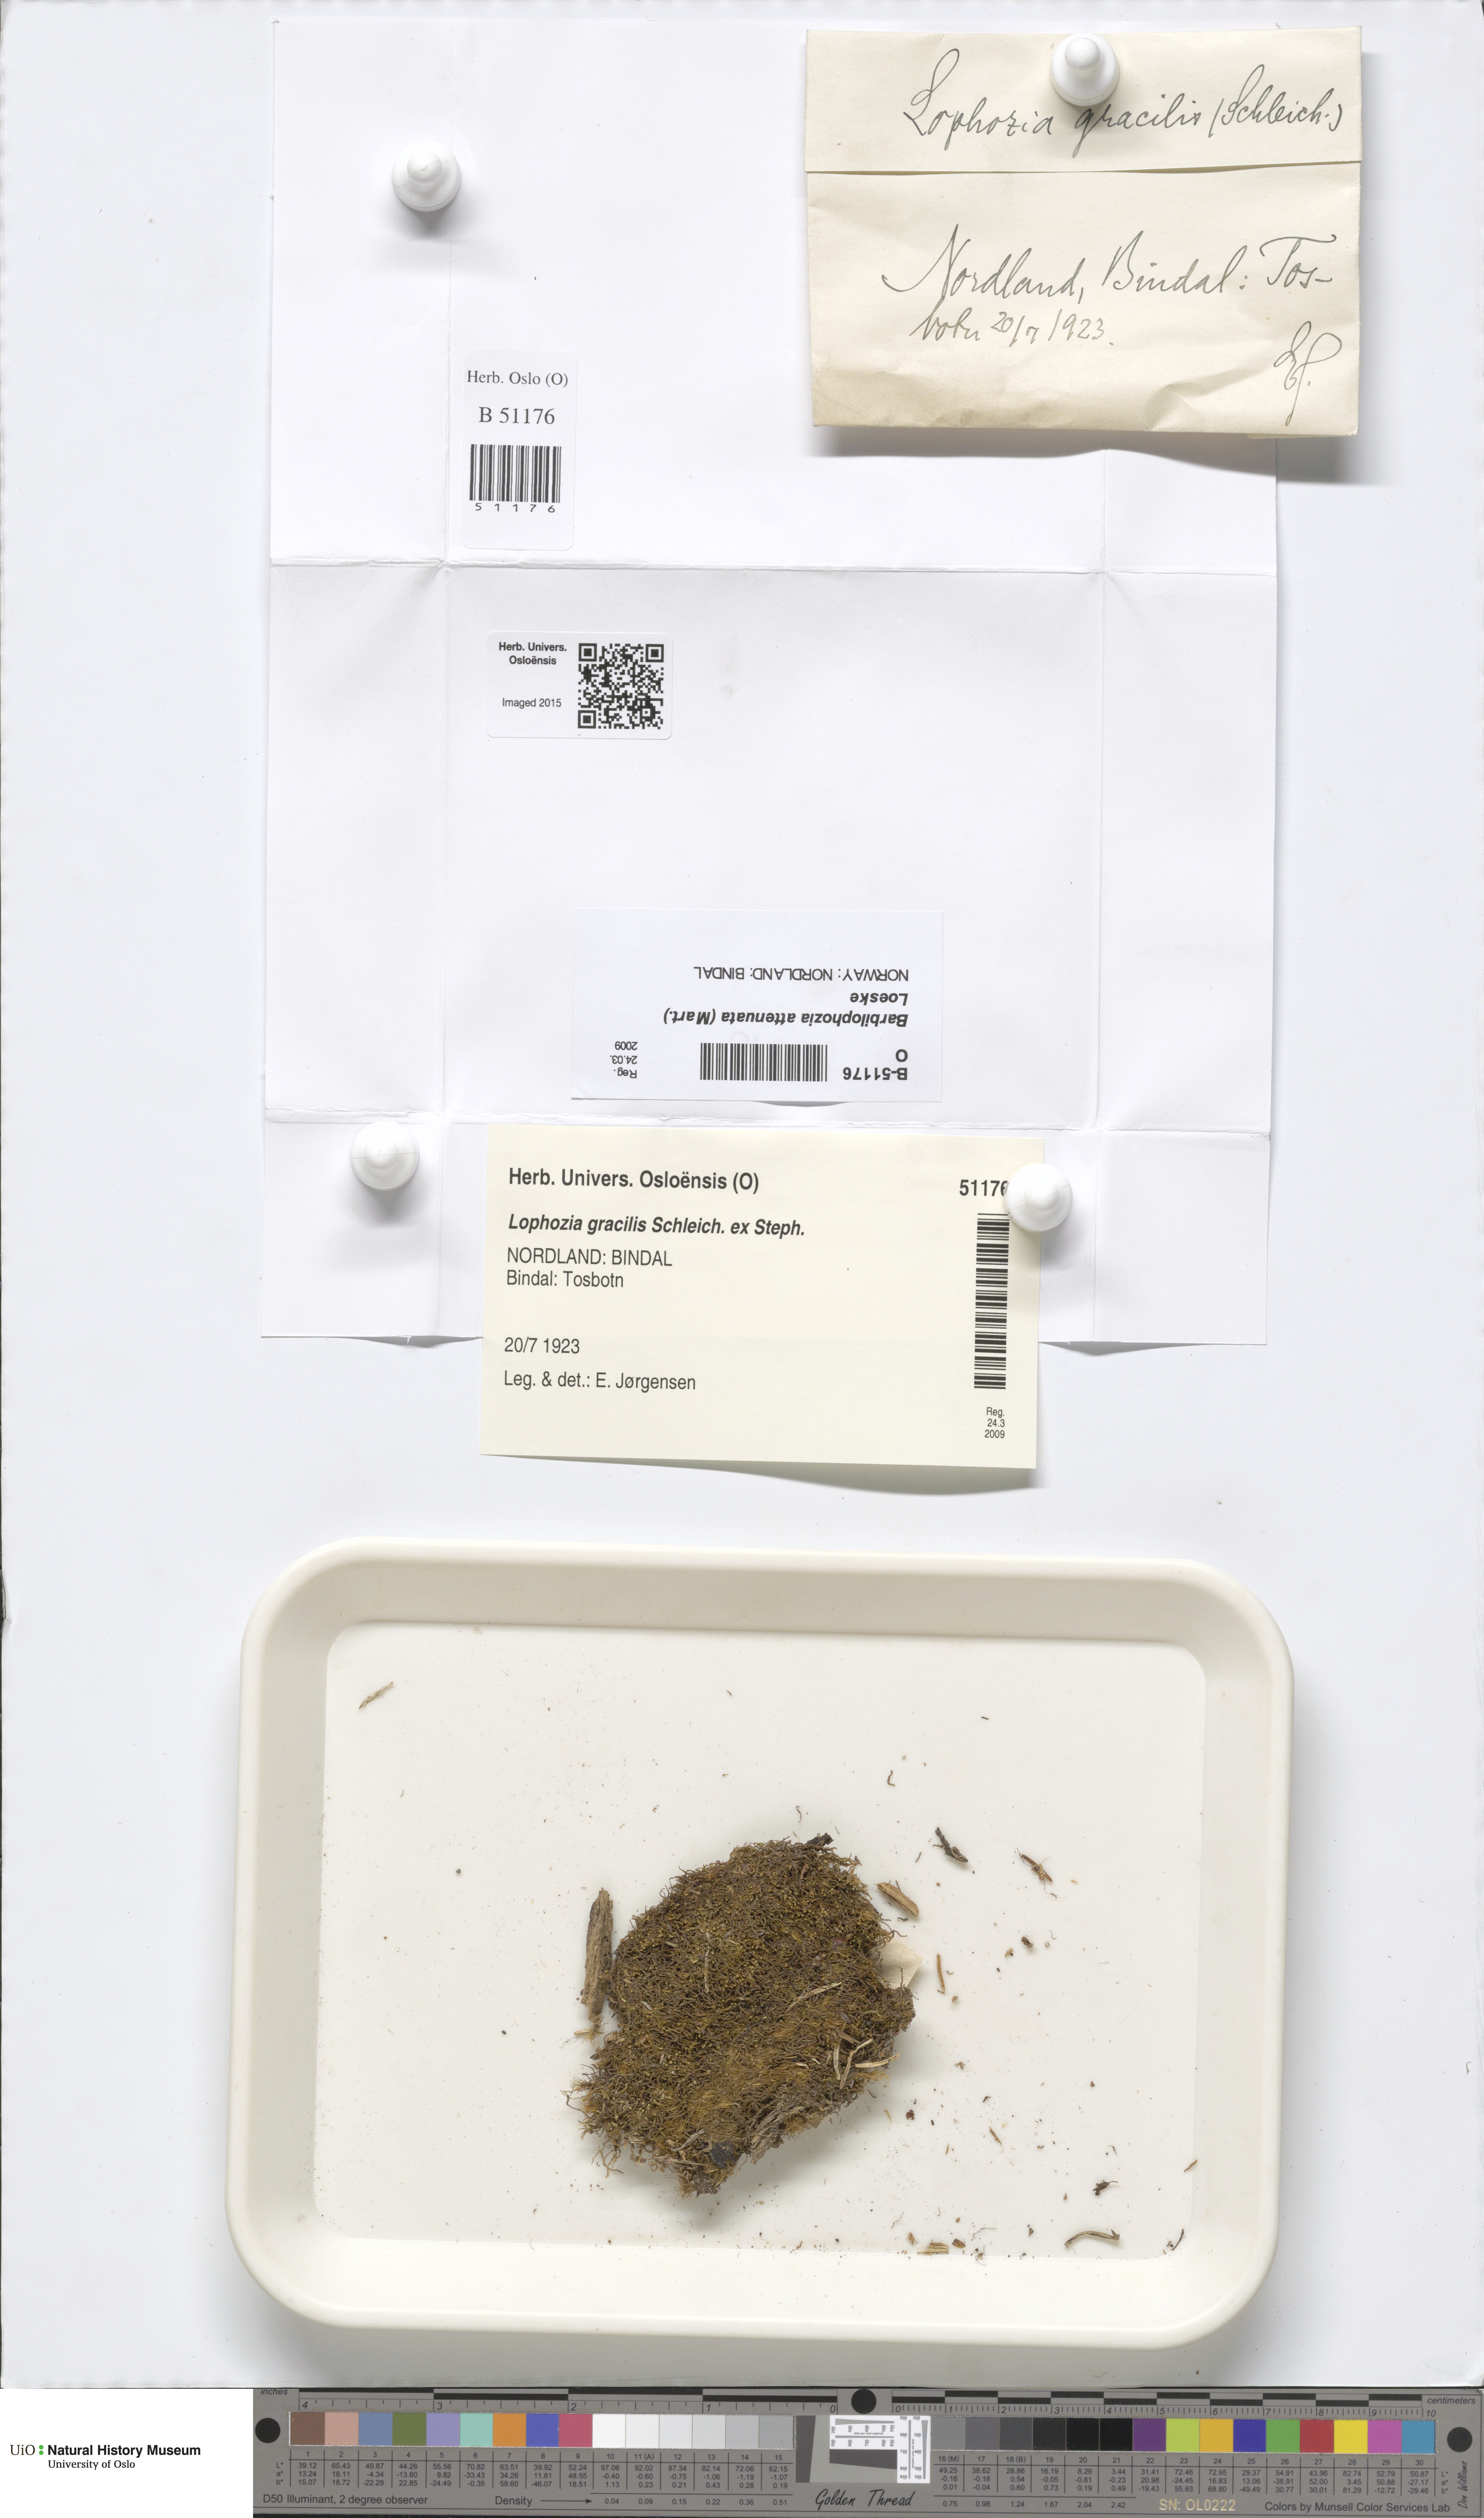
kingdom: Plantae
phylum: Marchantiophyta
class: Jungermanniopsida
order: Jungermanniales
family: Anastrophyllaceae
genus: Neoorthocaulis
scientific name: Neoorthocaulis attenuatus
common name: Trunk pawwort
